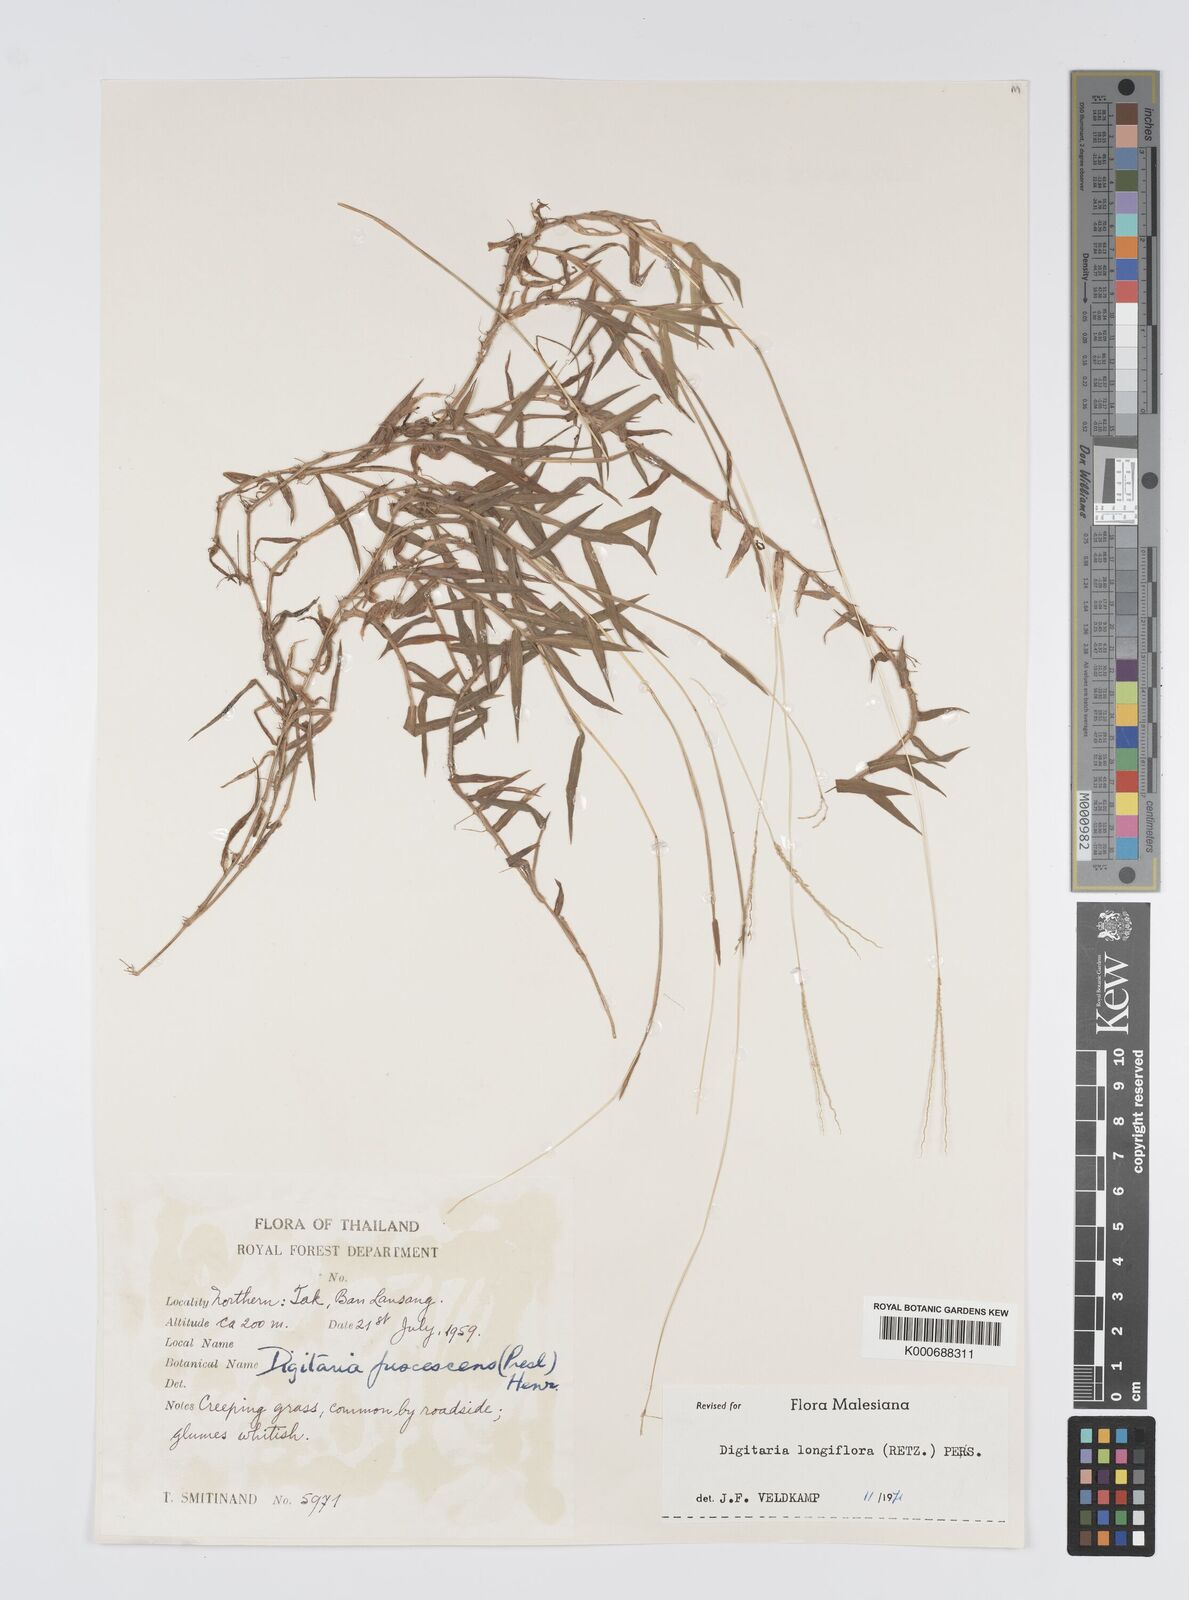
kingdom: Plantae
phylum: Tracheophyta
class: Liliopsida
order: Poales
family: Poaceae
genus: Digitaria
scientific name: Digitaria longiflora
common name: Wire crabgrass
